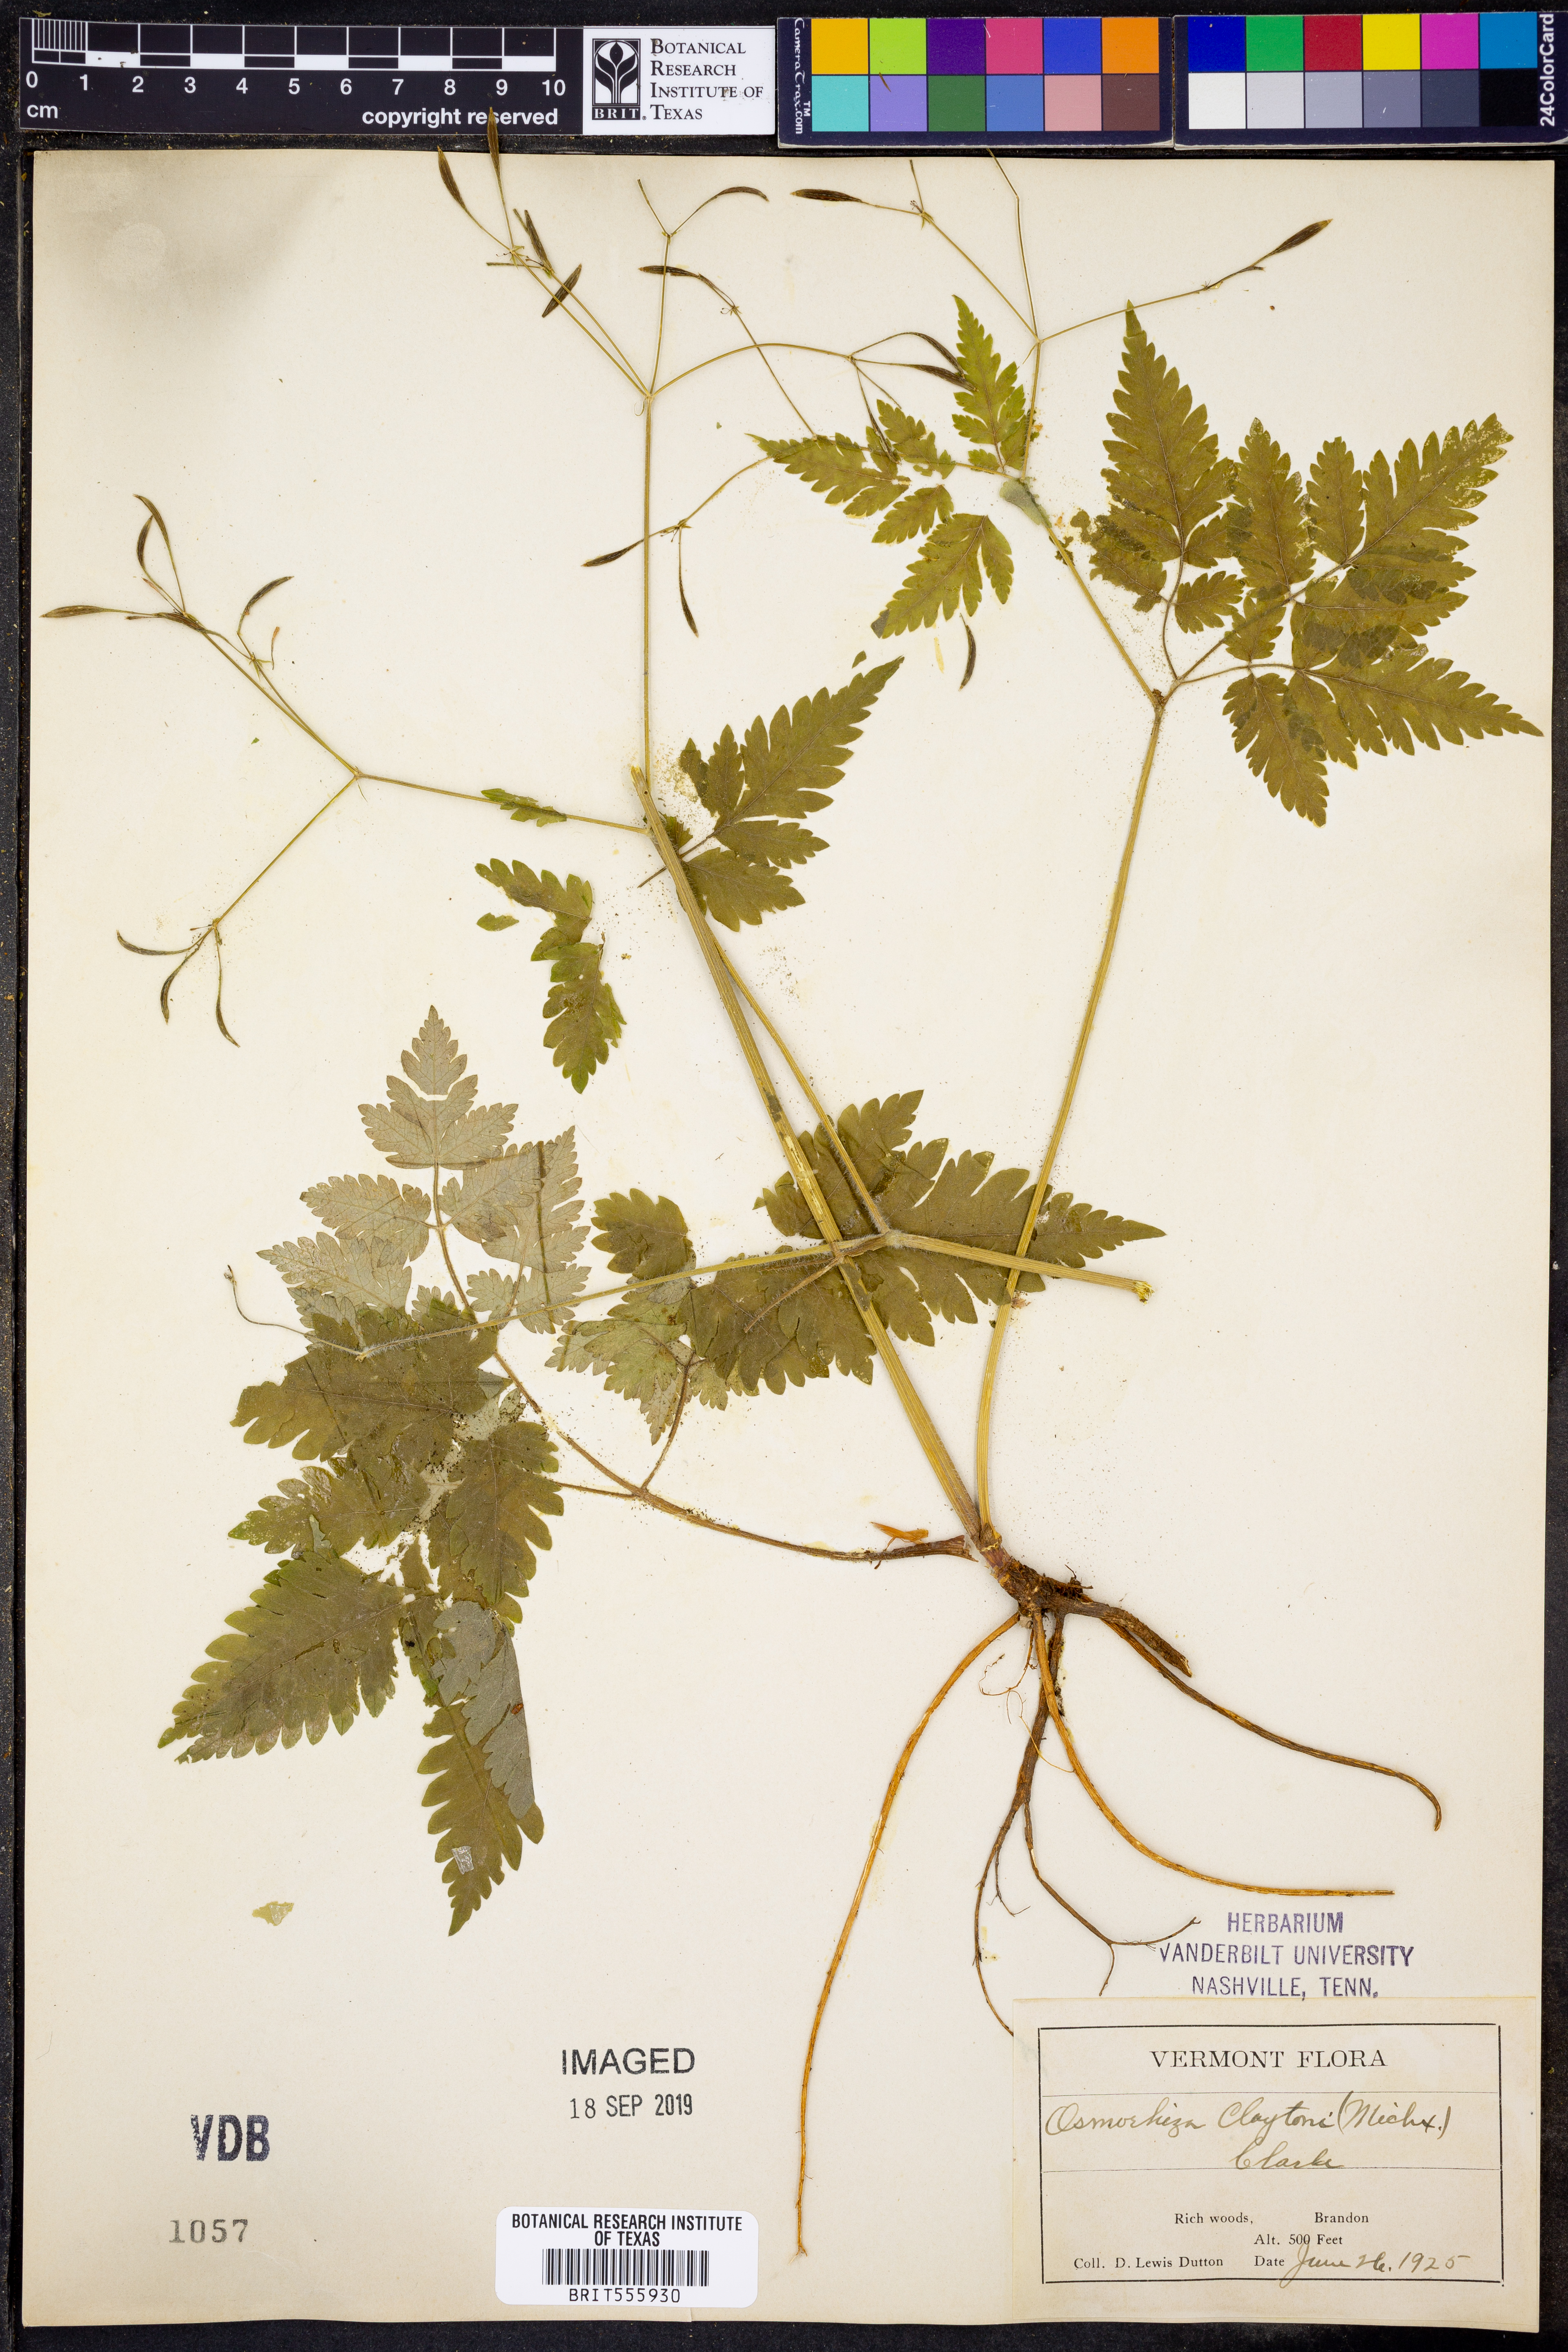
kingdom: Plantae
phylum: Tracheophyta
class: Magnoliopsida
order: Apiales
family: Apiaceae
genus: Osmorhiza
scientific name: Osmorhiza claytonii
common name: Hairy sweet cicely
